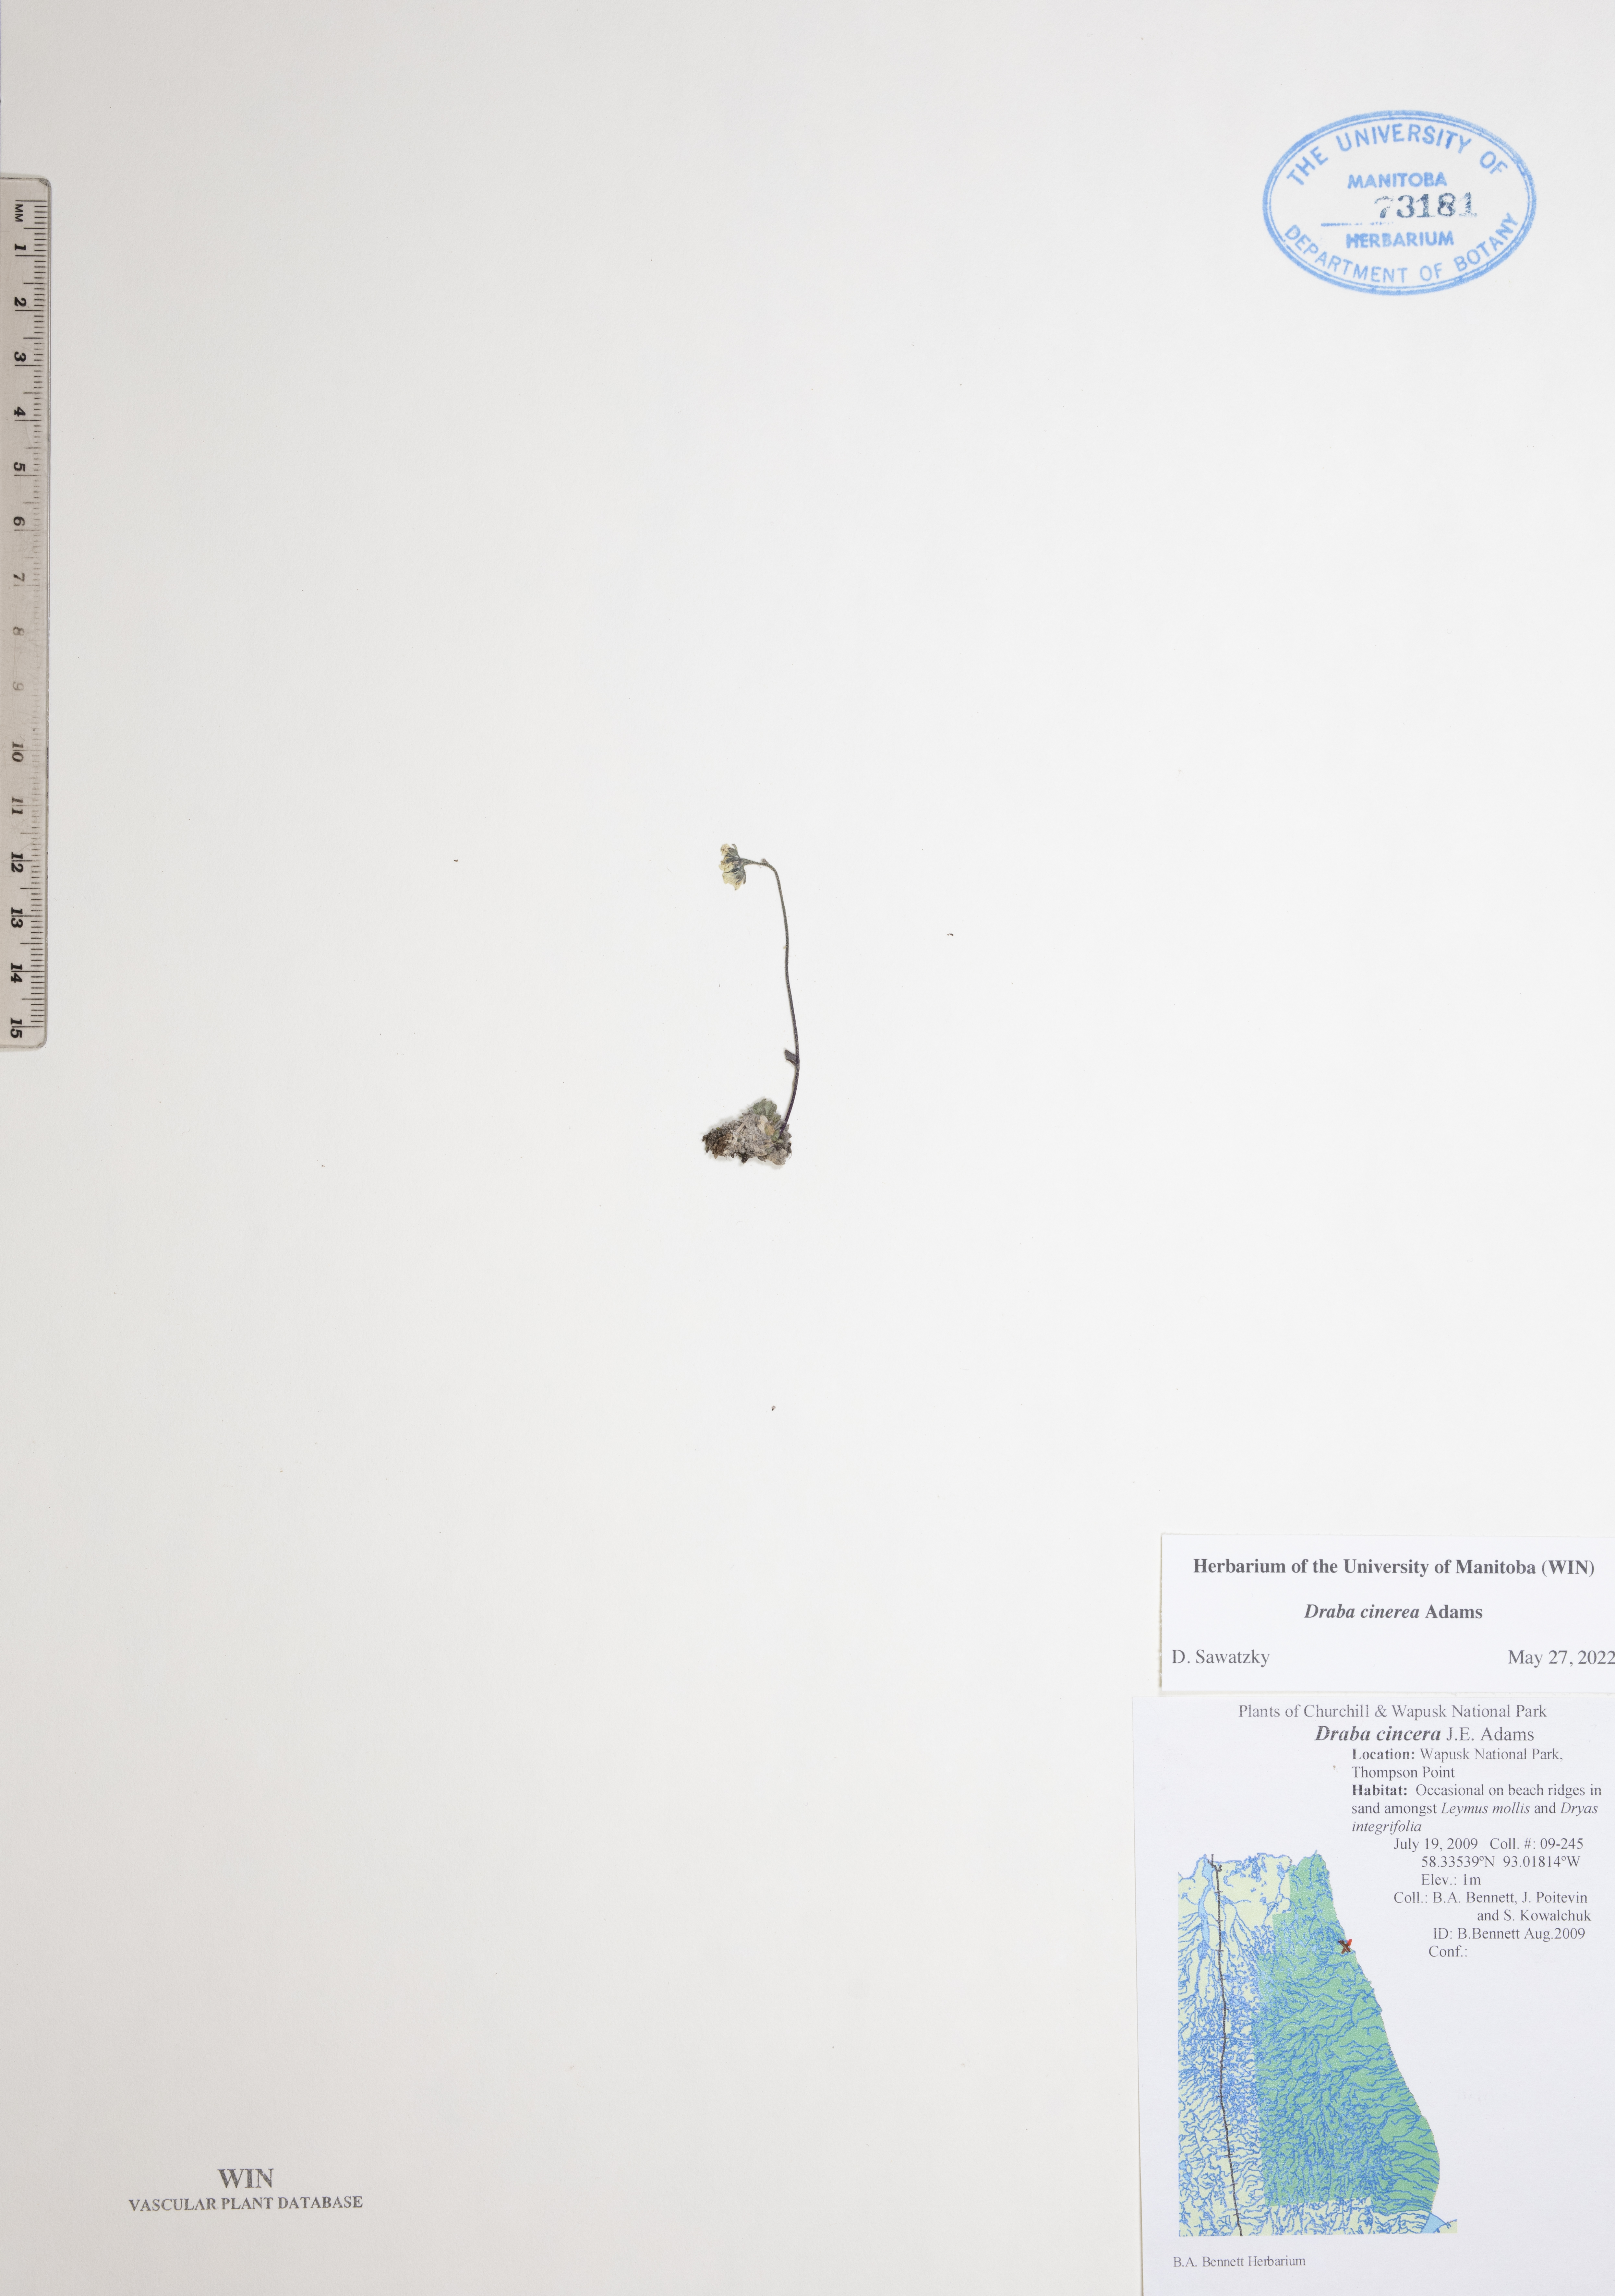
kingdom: Plantae
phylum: Tracheophyta
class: Magnoliopsida
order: Brassicales
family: Brassicaceae
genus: Draba
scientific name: Draba cinerea
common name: Ash-coloured whitlow-grass
